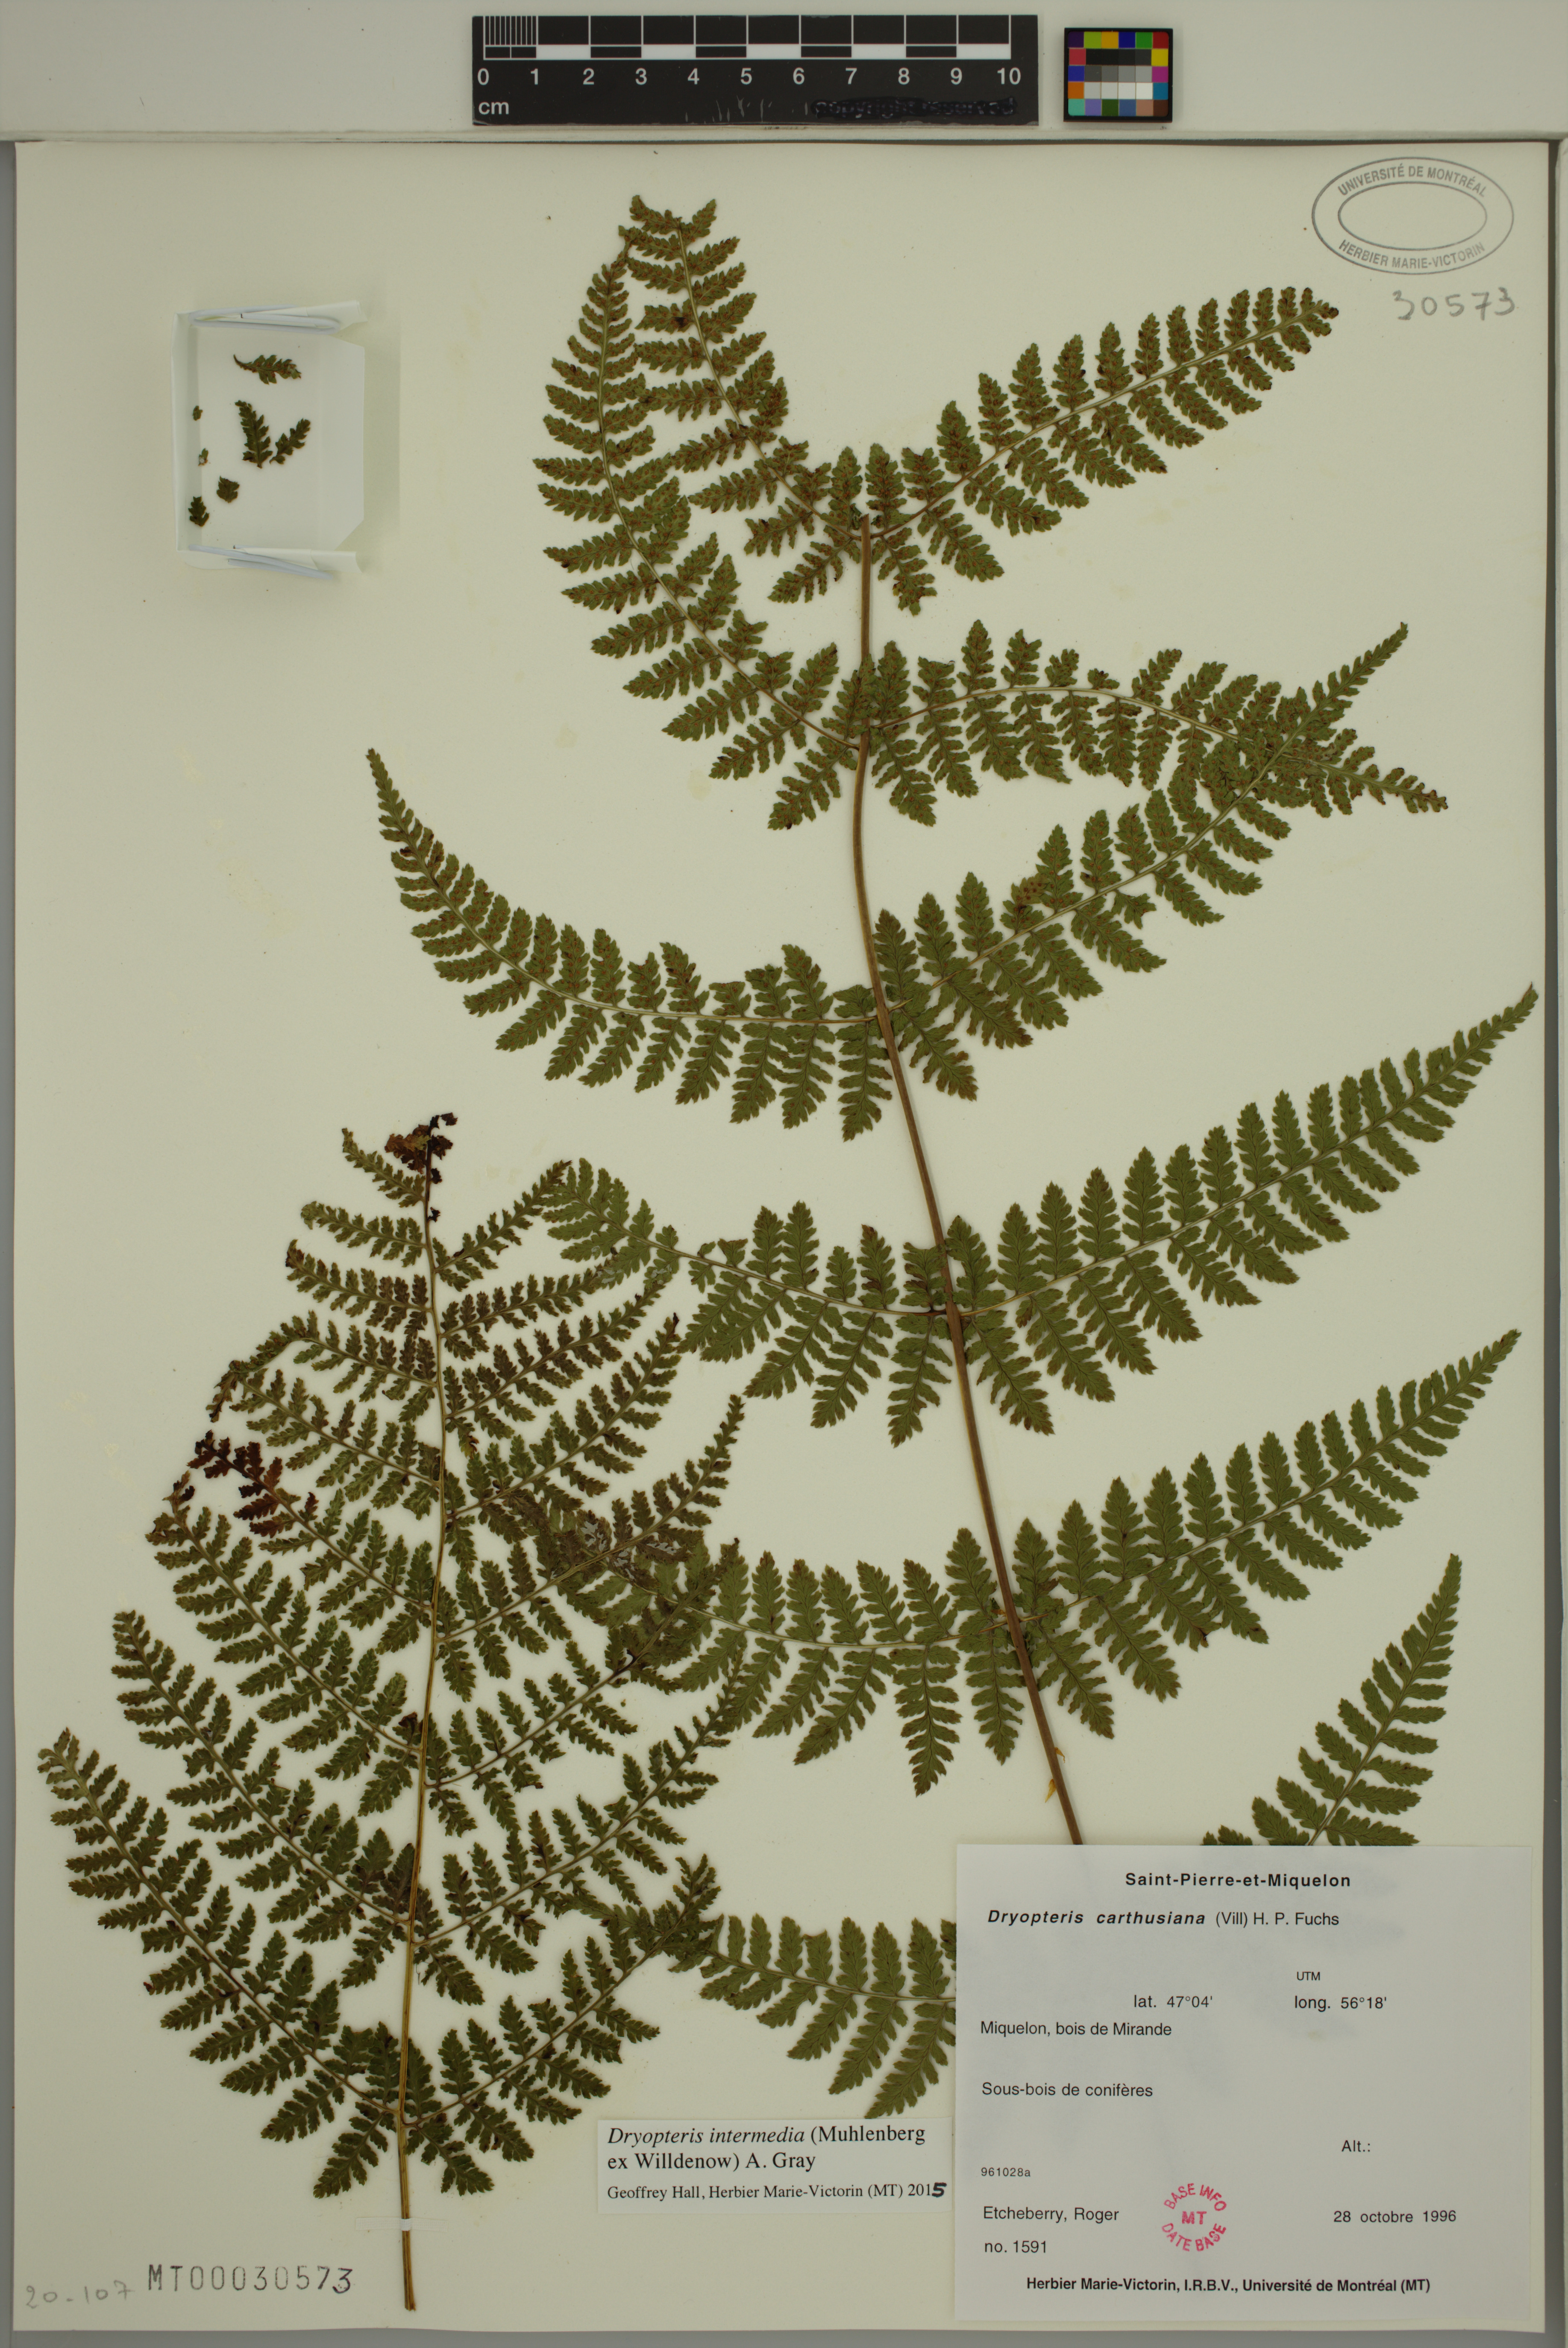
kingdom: Plantae
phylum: Tracheophyta
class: Polypodiopsida
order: Polypodiales
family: Dryopteridaceae
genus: Dryopteris
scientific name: Dryopteris intermedia
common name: Evergreen wood fern
